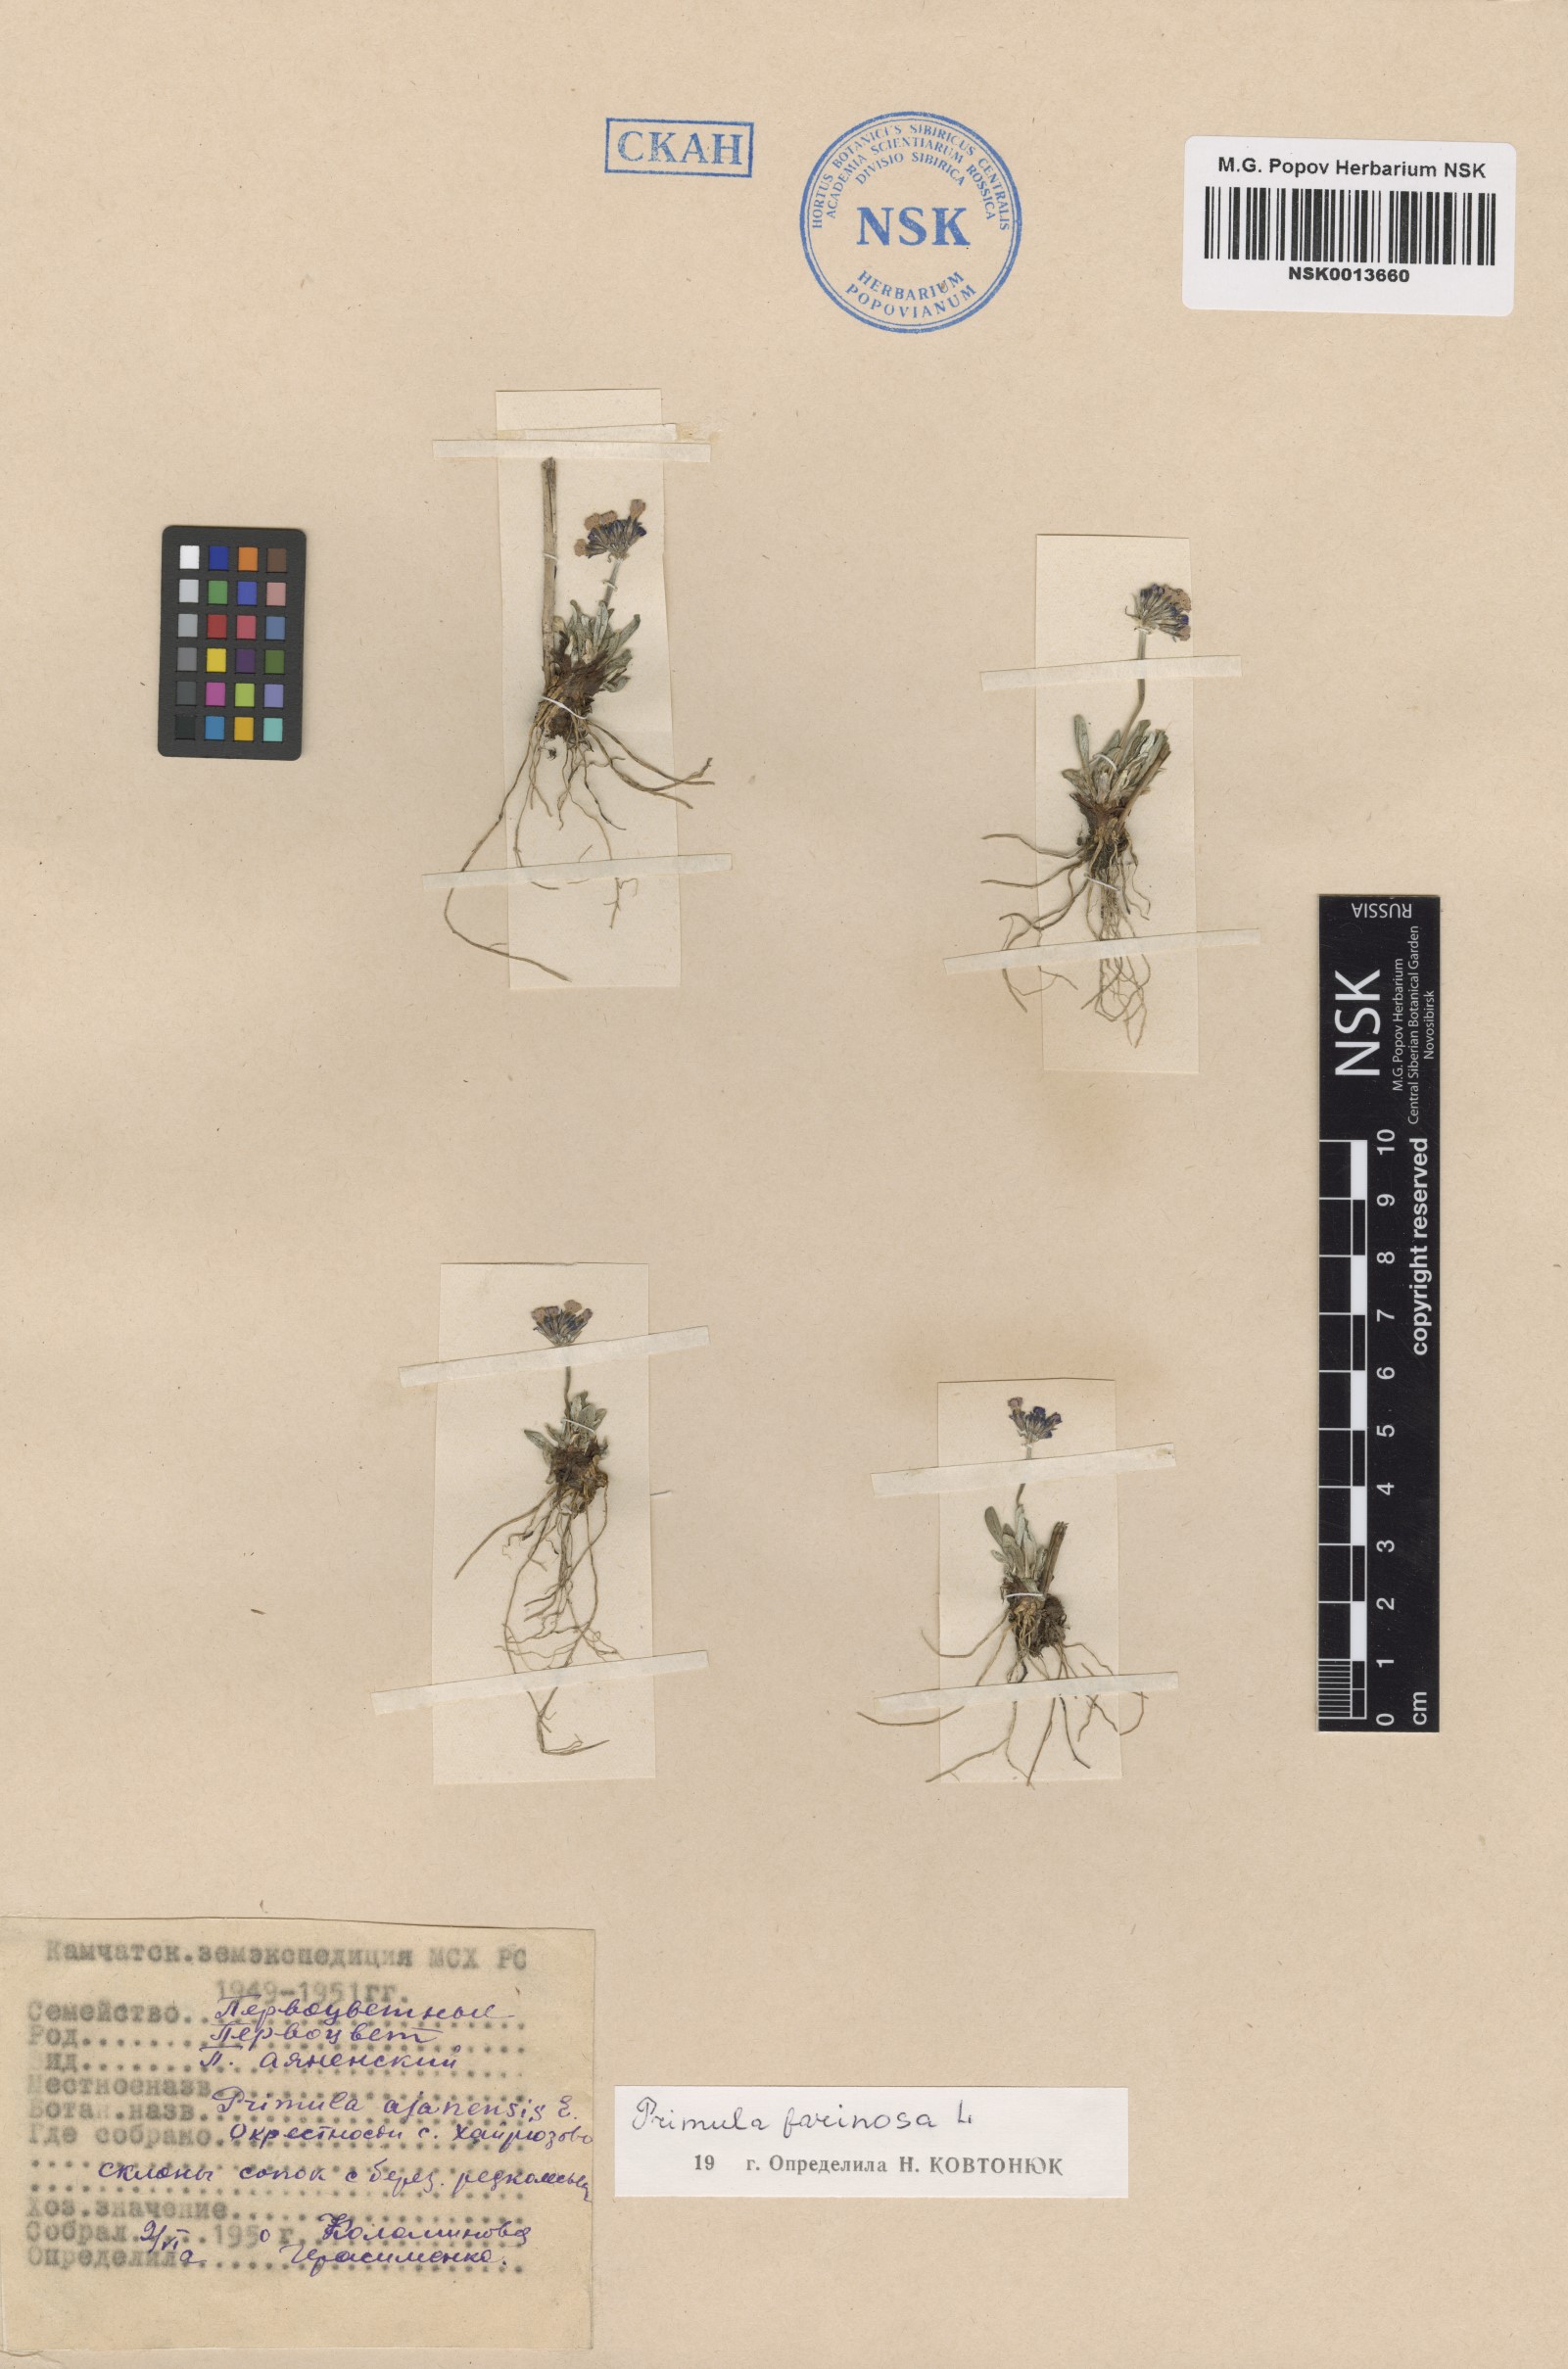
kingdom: Plantae
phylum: Tracheophyta
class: Magnoliopsida
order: Ericales
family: Primulaceae
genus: Primula
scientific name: Primula farinosa
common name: Bird's-eye primrose
